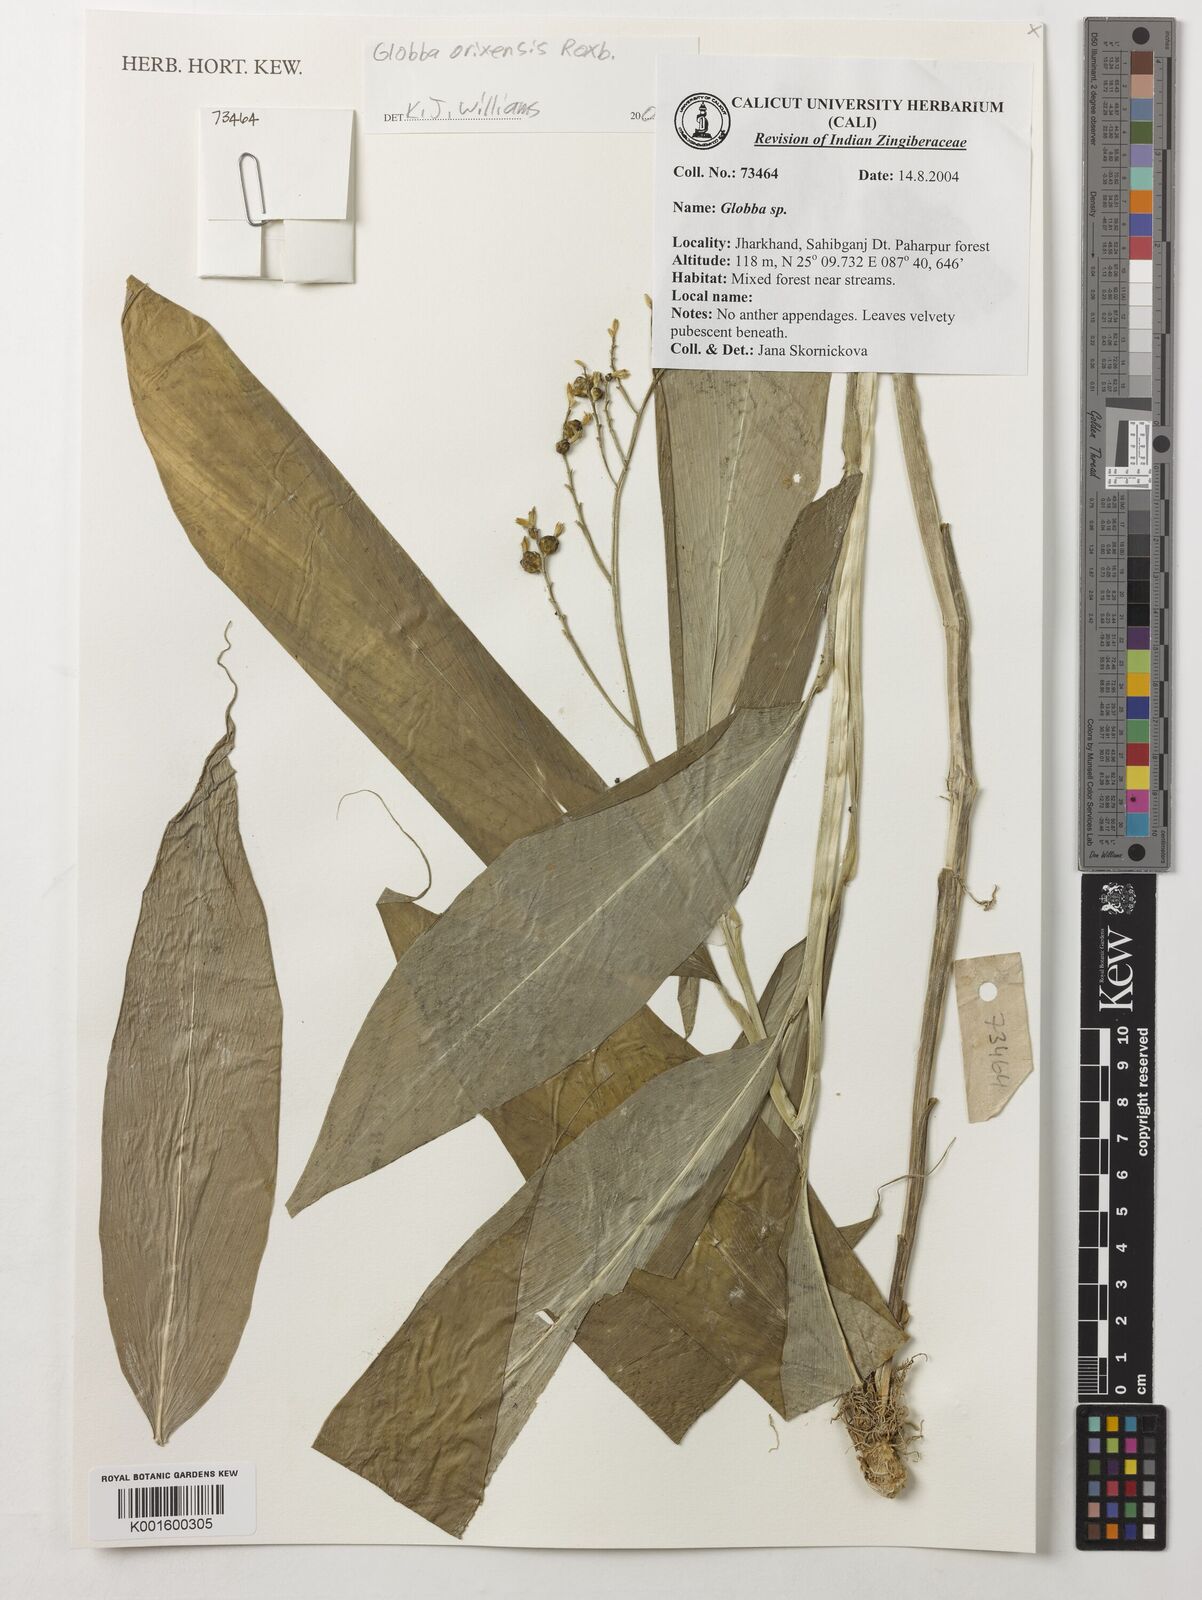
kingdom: Plantae
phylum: Tracheophyta
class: Liliopsida
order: Zingiberales
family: Zingiberaceae
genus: Globba
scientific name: Globba orixensis
